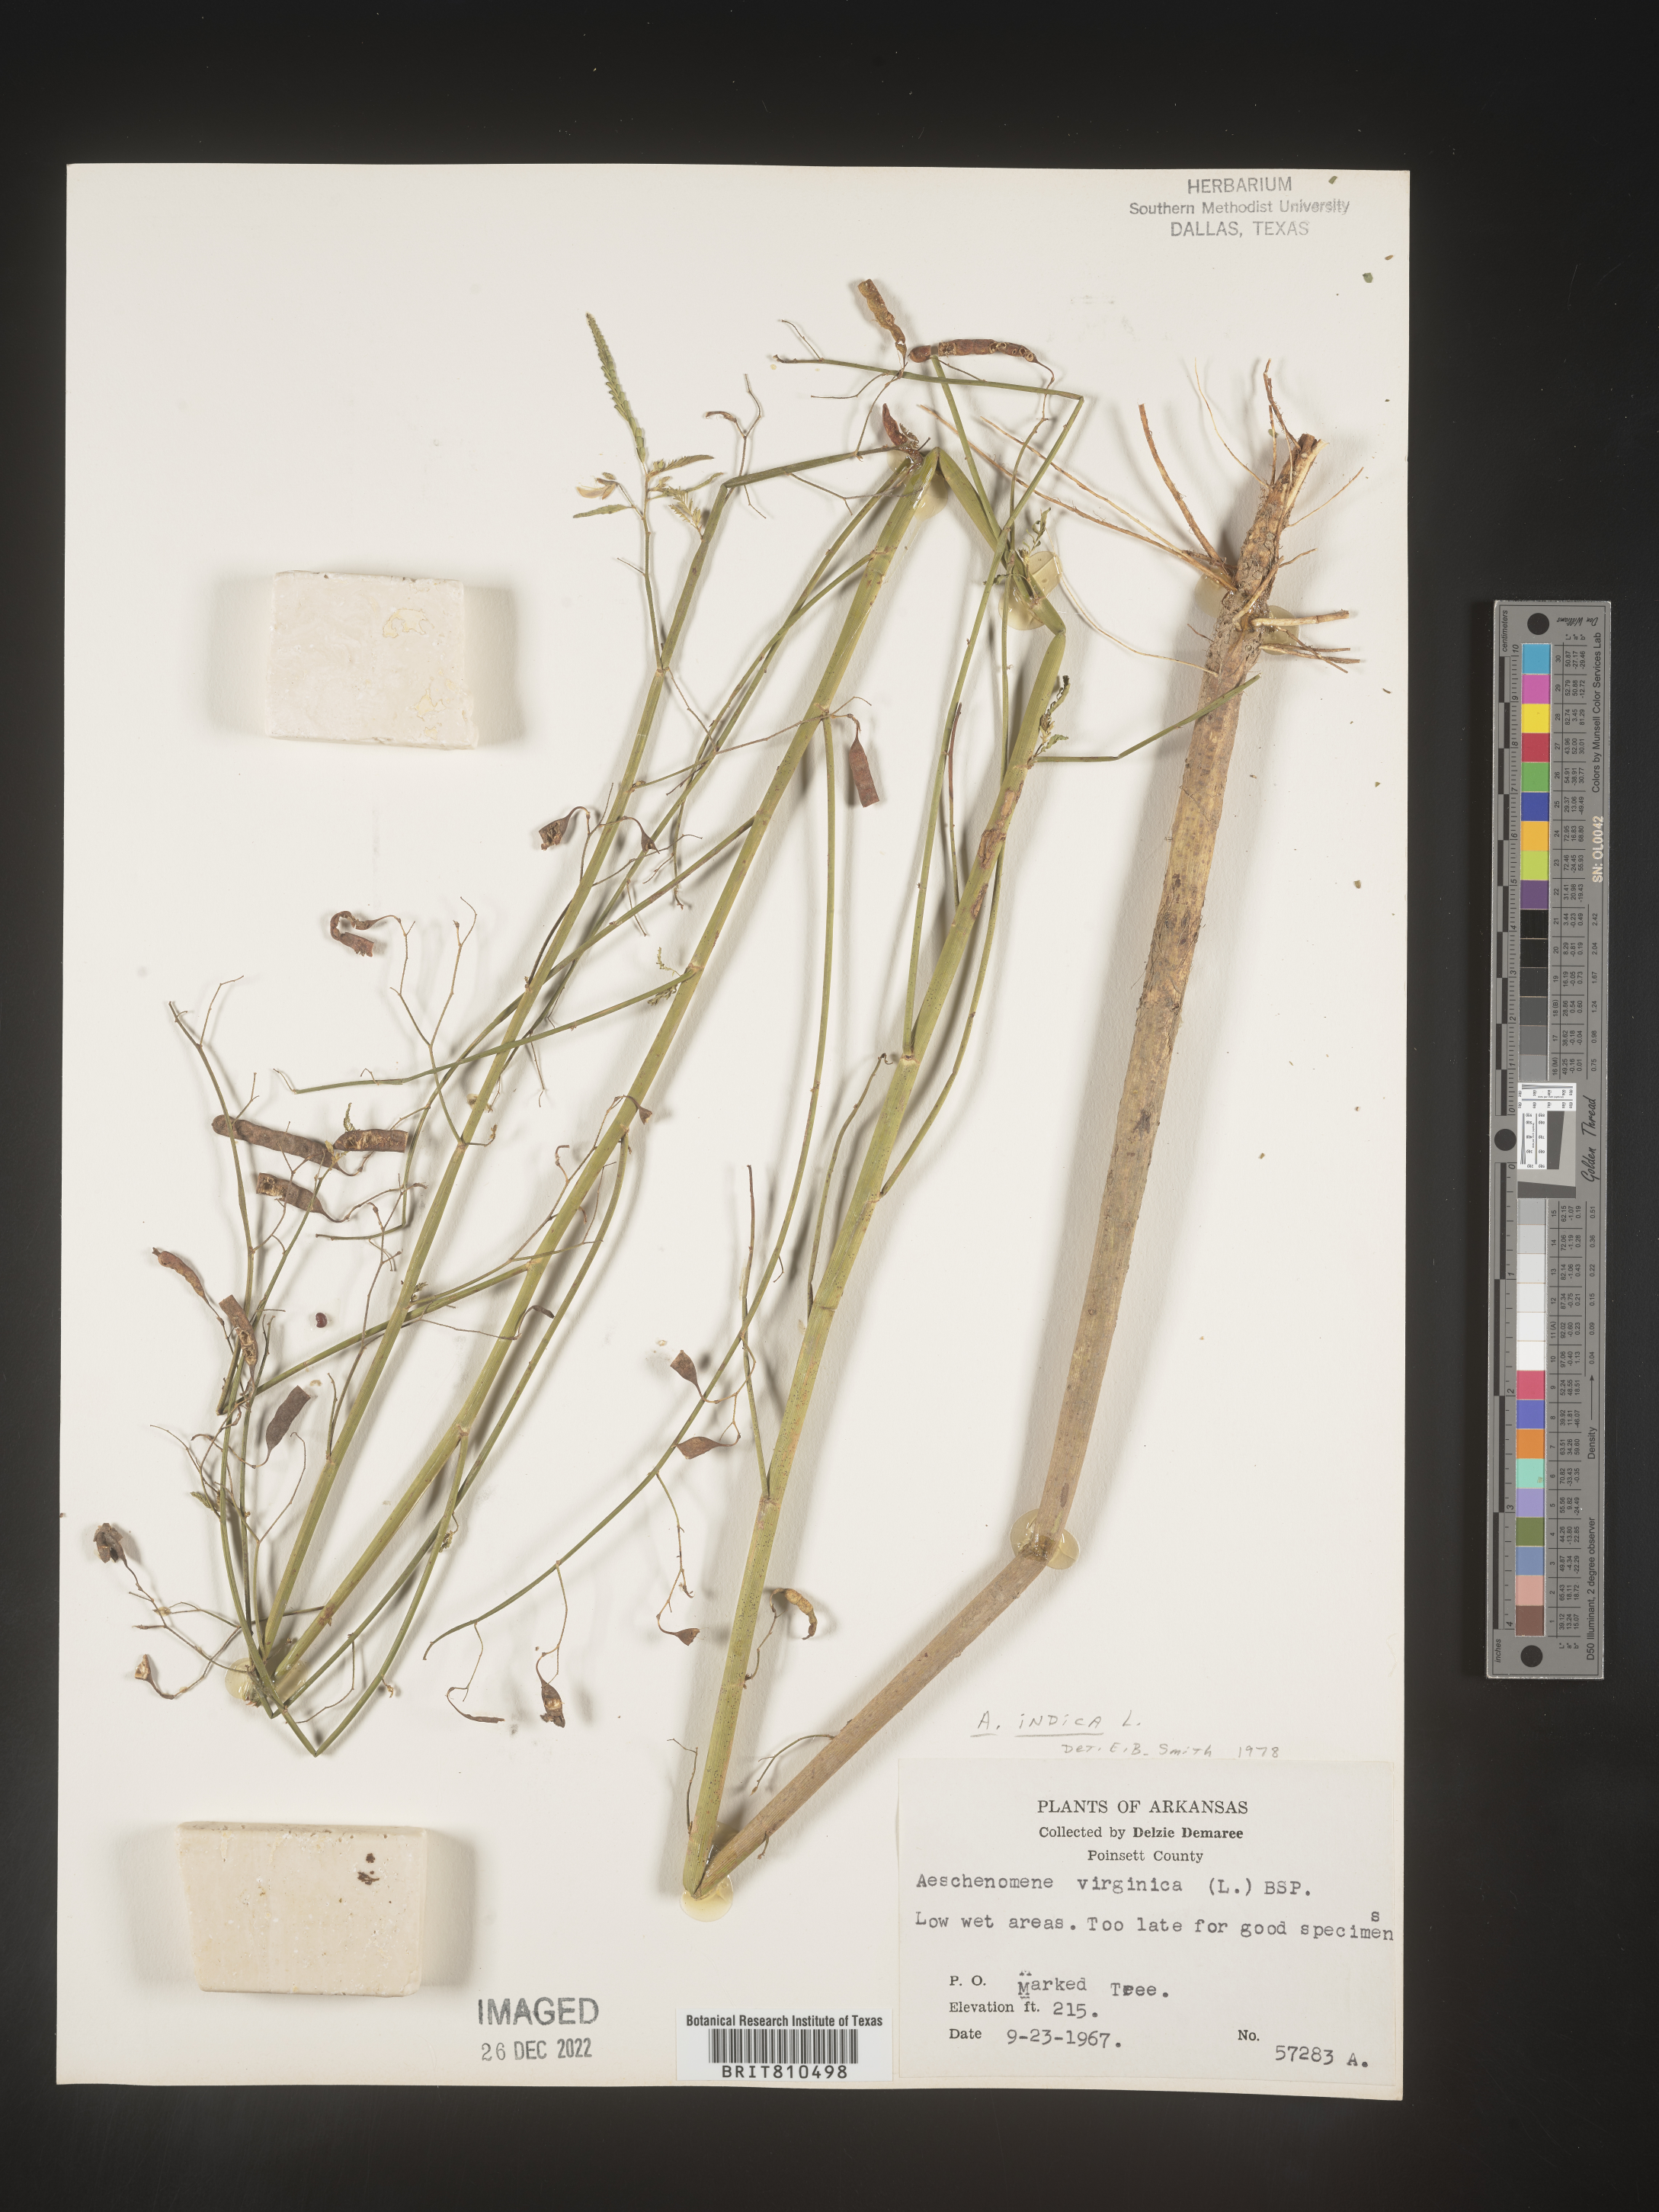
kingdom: Plantae
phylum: Tracheophyta
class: Magnoliopsida
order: Fabales
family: Fabaceae
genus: Aeschynomene
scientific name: Aeschynomene indica
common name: Indian jointvetch
